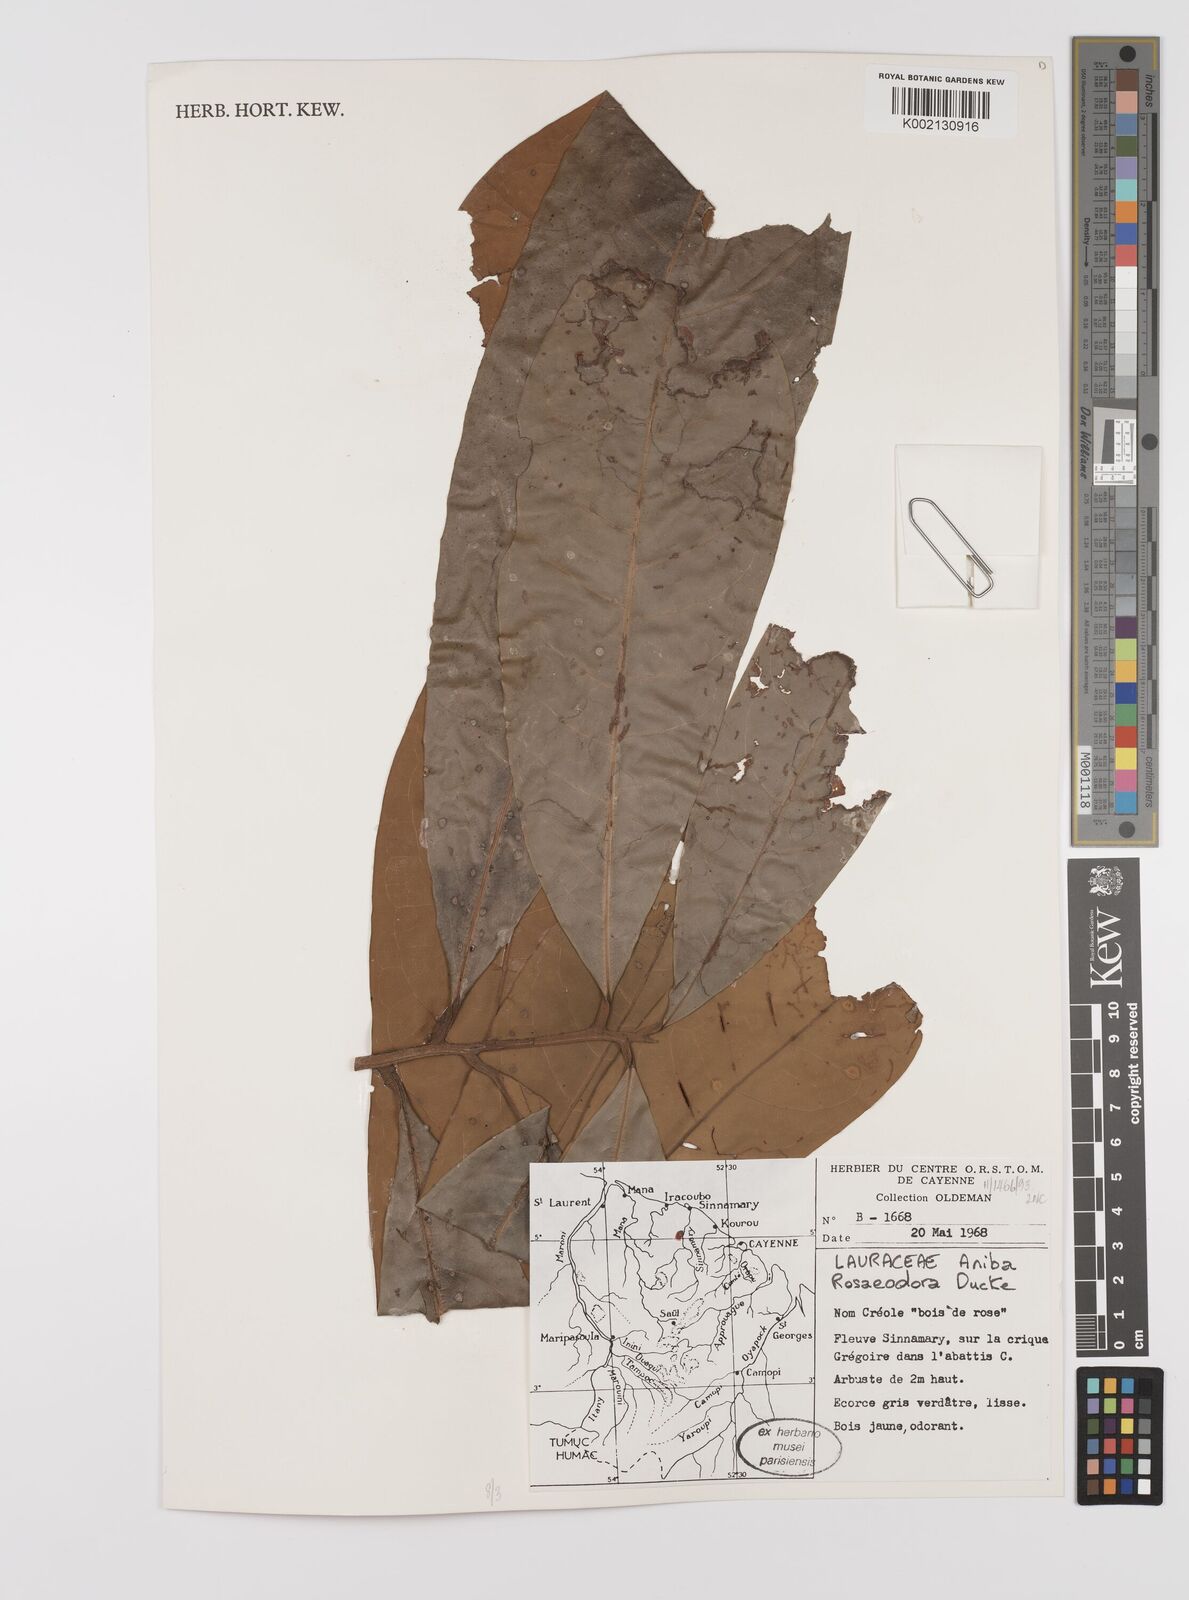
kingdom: Plantae
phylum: Tracheophyta
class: Magnoliopsida
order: Laurales
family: Lauraceae
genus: Aniba
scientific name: Aniba rosodora
